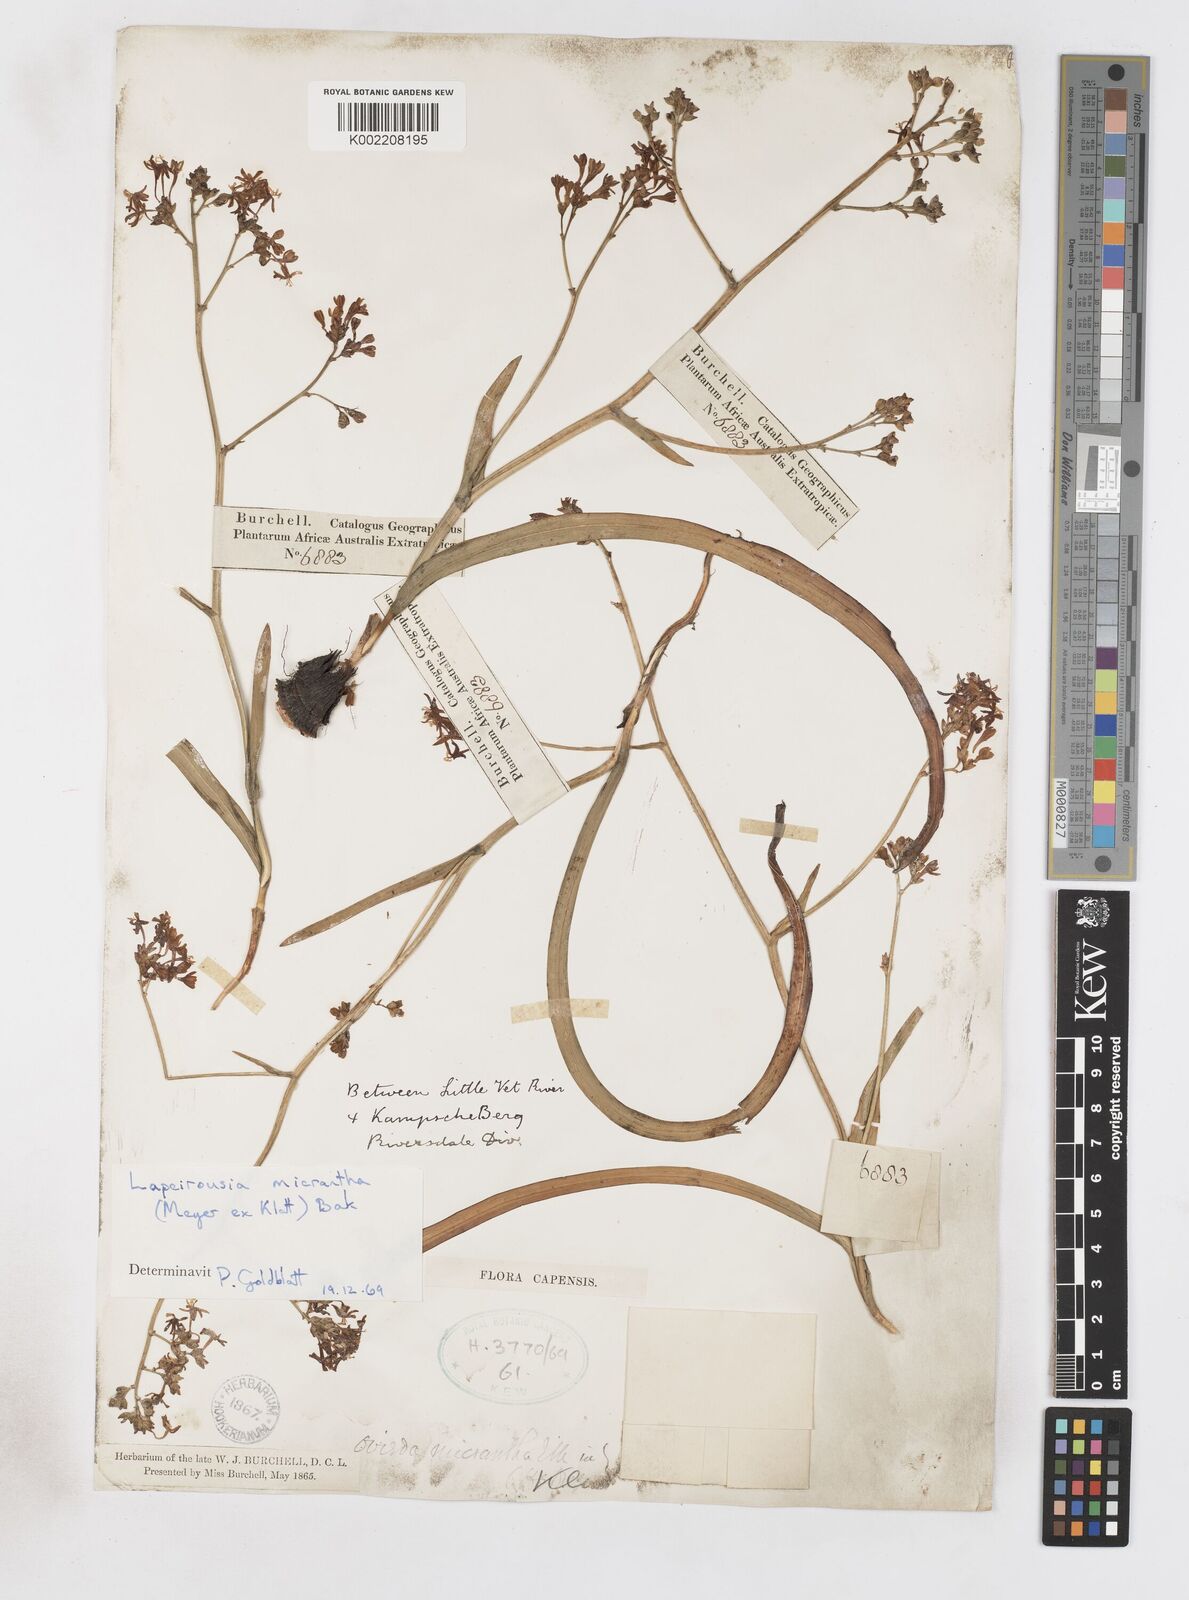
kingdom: Plantae
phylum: Tracheophyta
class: Liliopsida
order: Asparagales
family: Iridaceae
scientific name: Iridaceae
